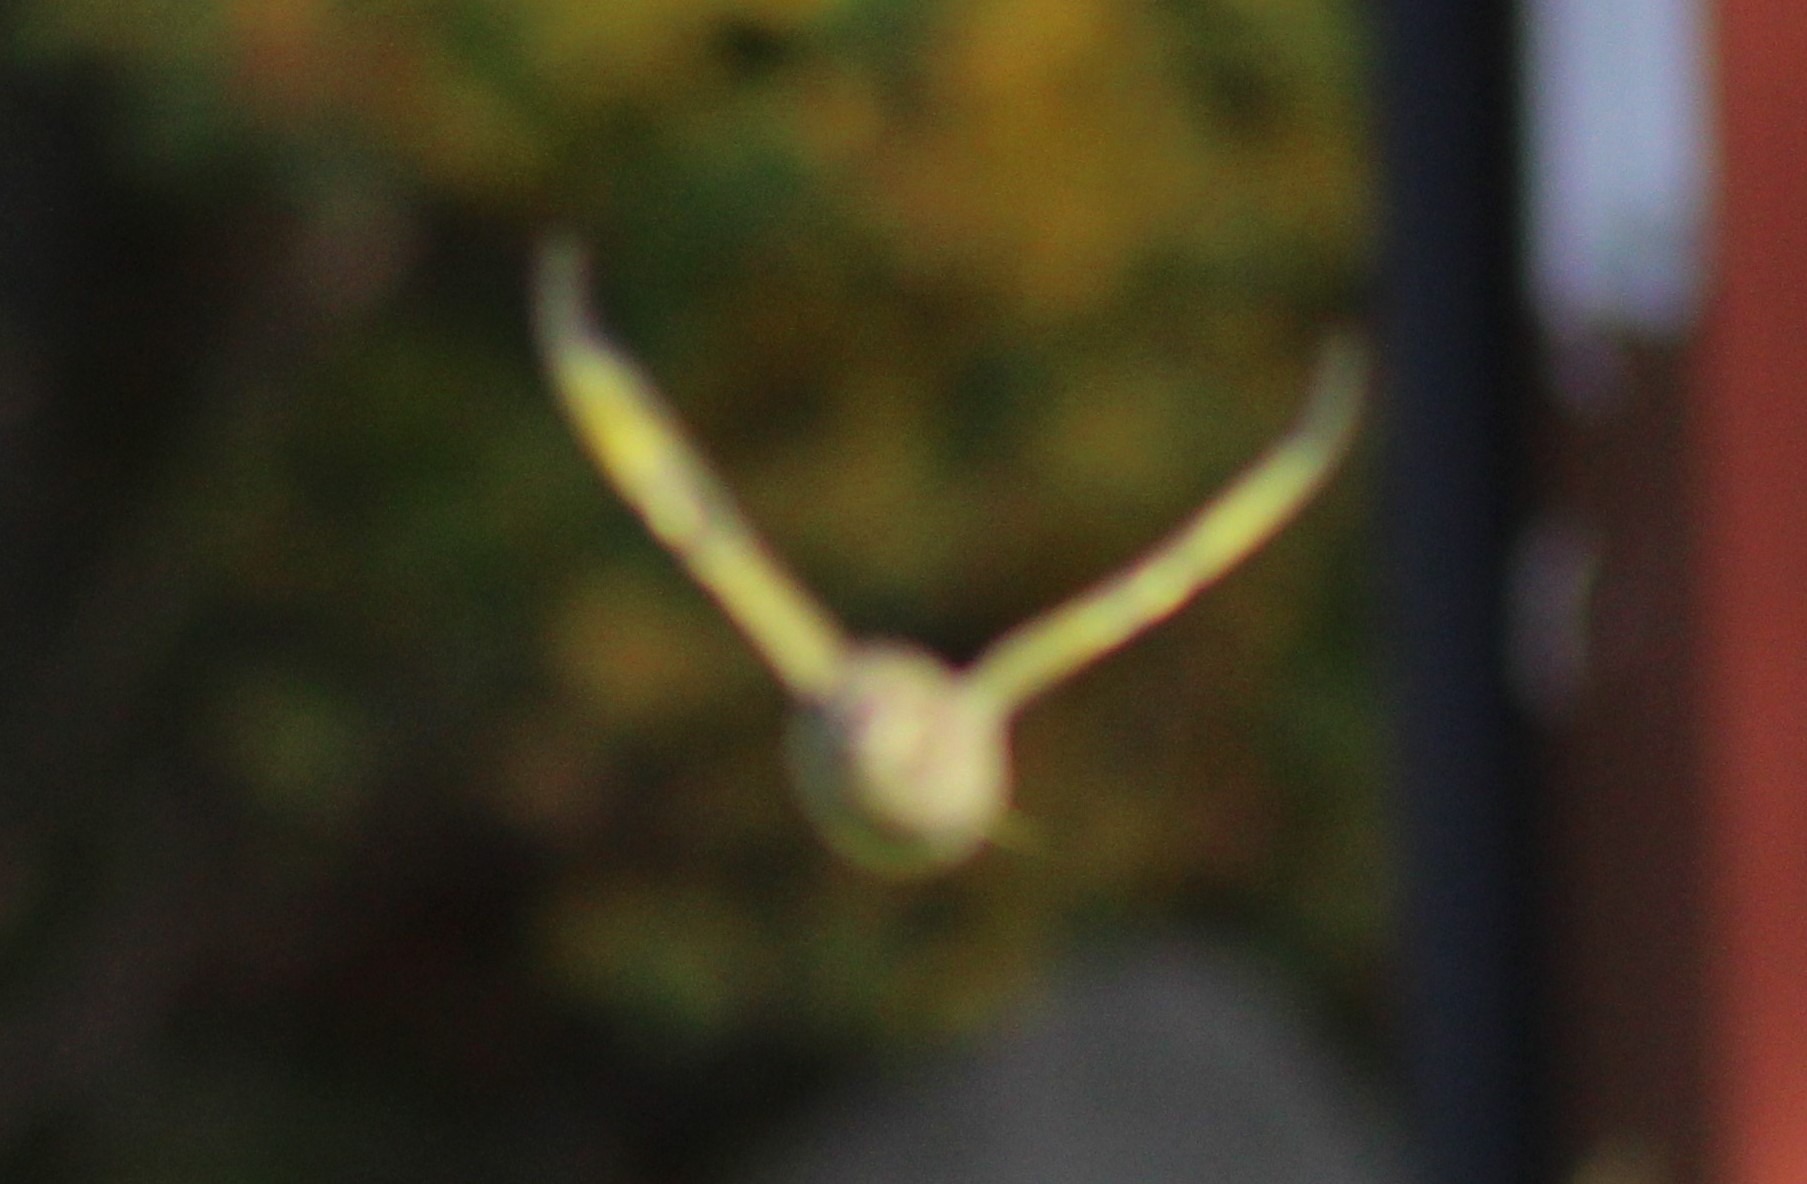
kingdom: Plantae
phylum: Tracheophyta
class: Liliopsida
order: Poales
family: Poaceae
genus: Chloris
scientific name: Chloris chloris
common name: Grønirisk
